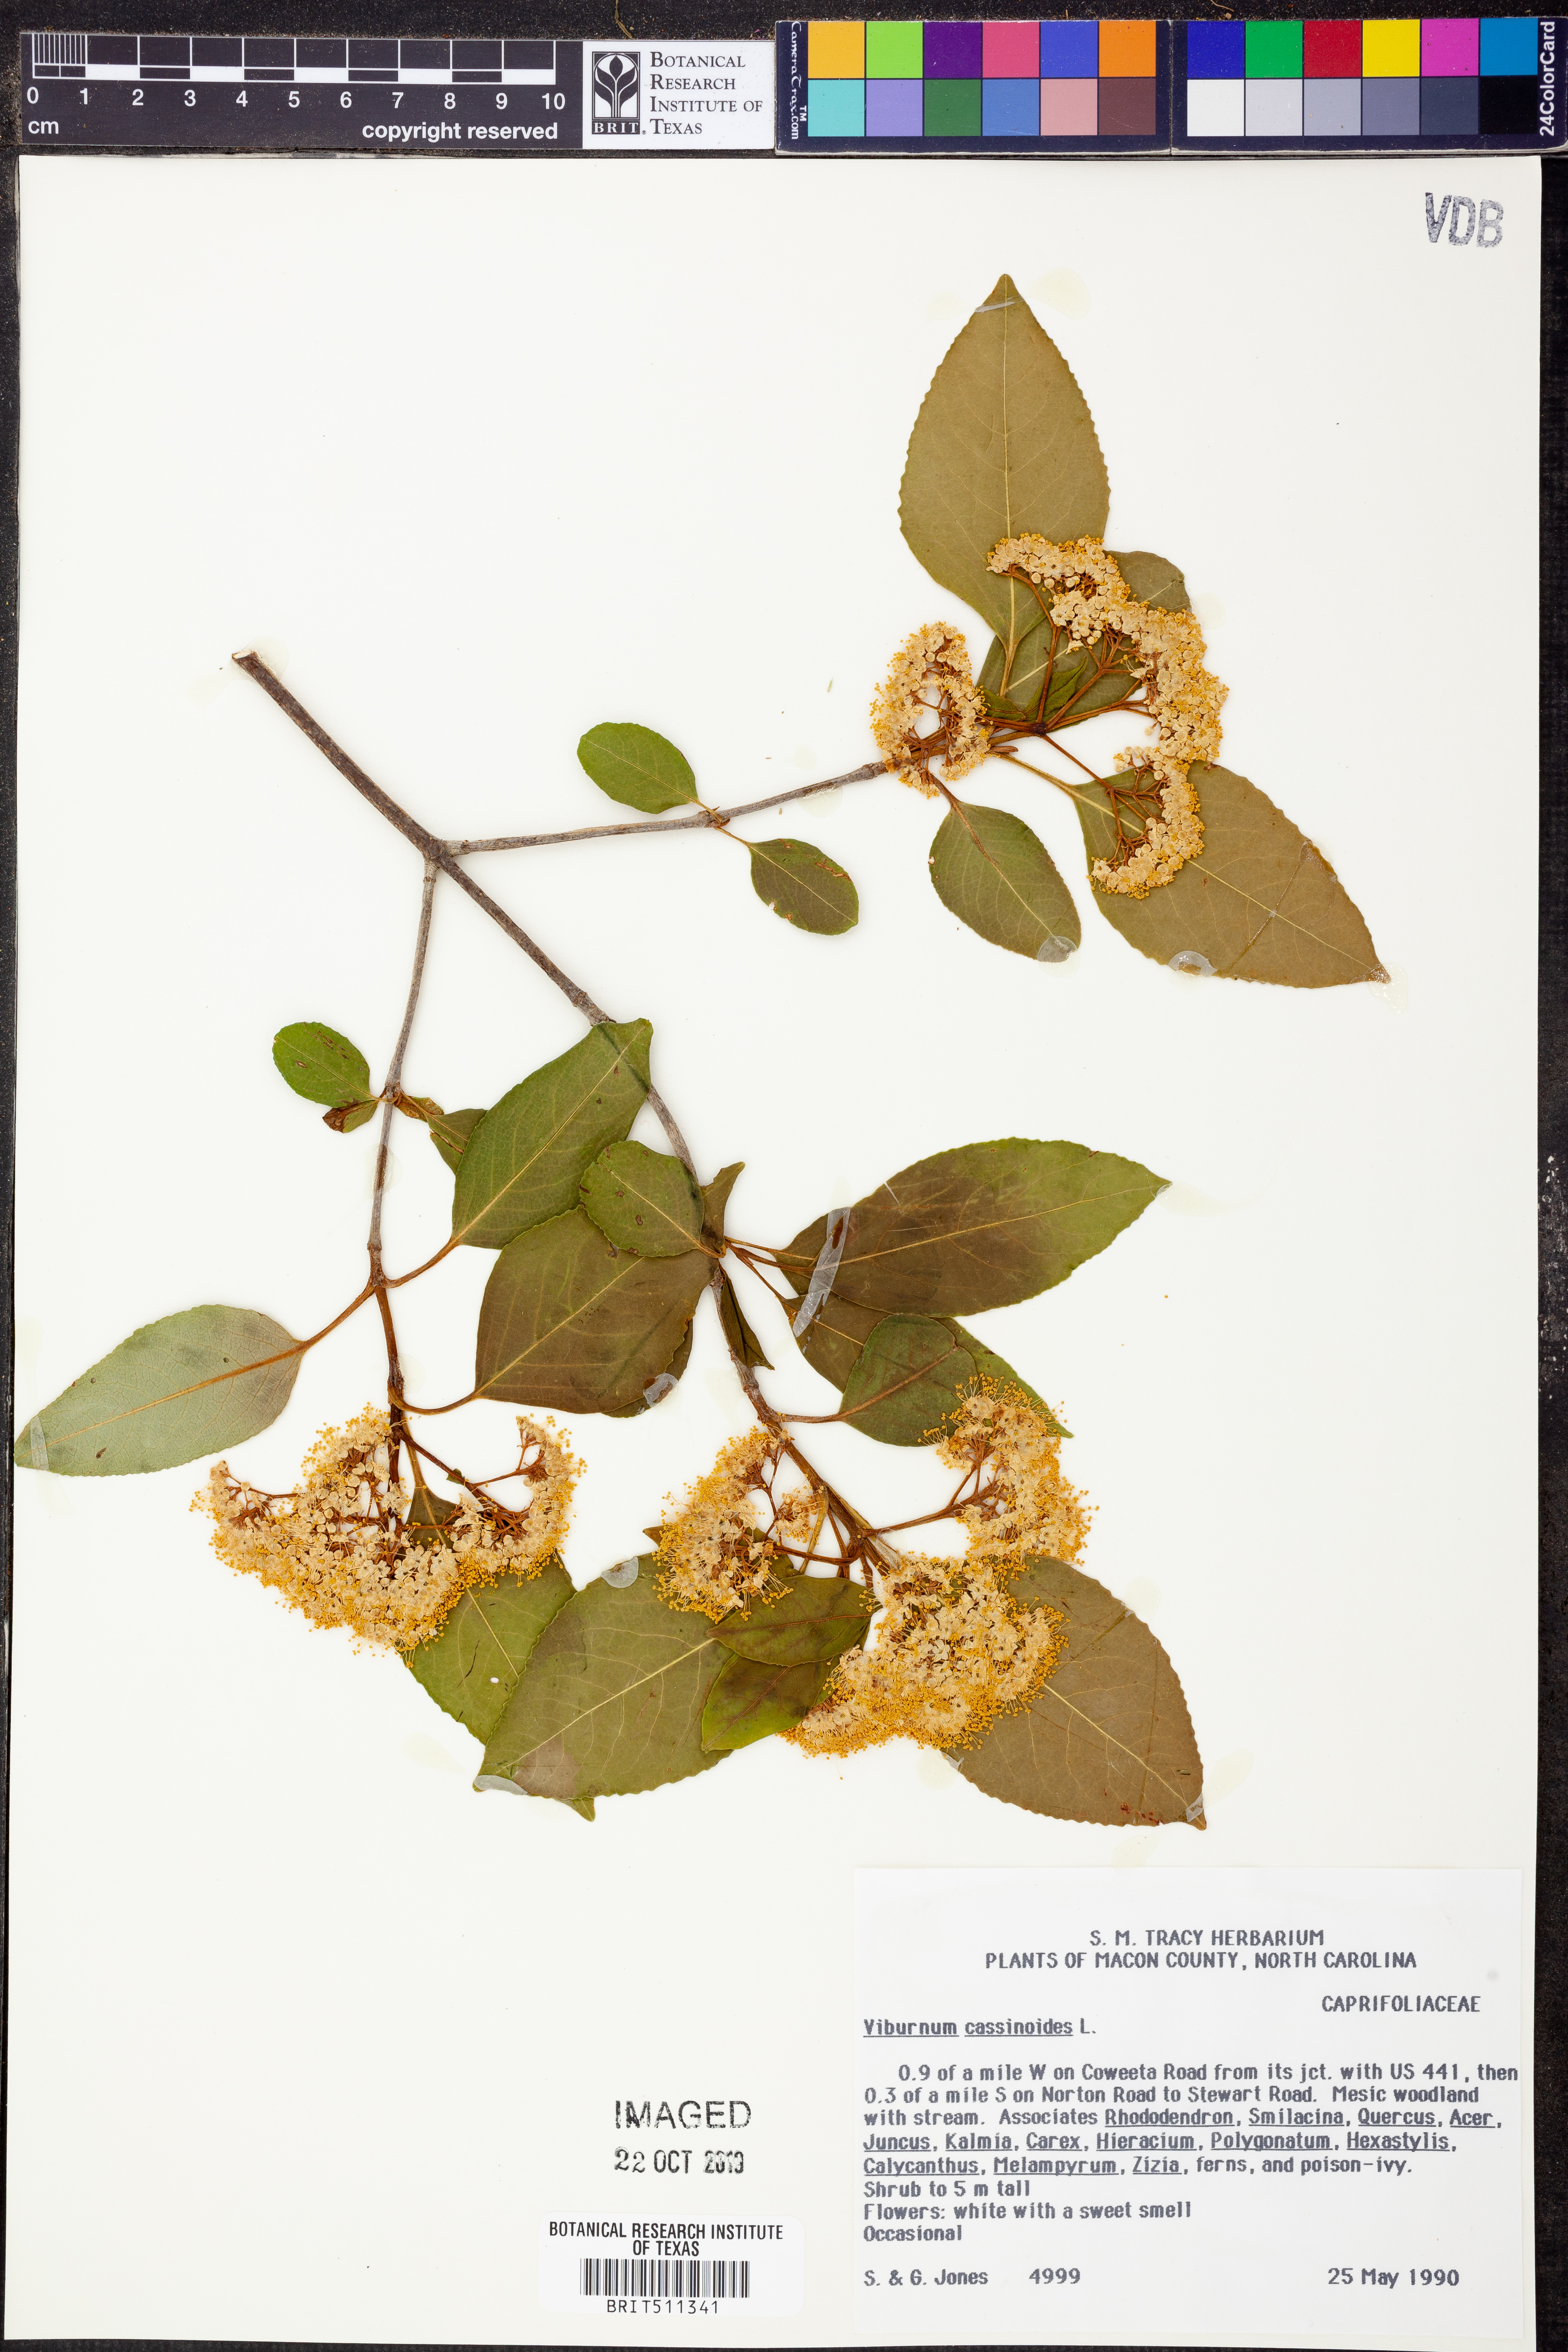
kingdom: Plantae
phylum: Tracheophyta
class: Magnoliopsida
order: Dipsacales
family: Viburnaceae
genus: Viburnum
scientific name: Viburnum cassinoides
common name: Swamp haw
